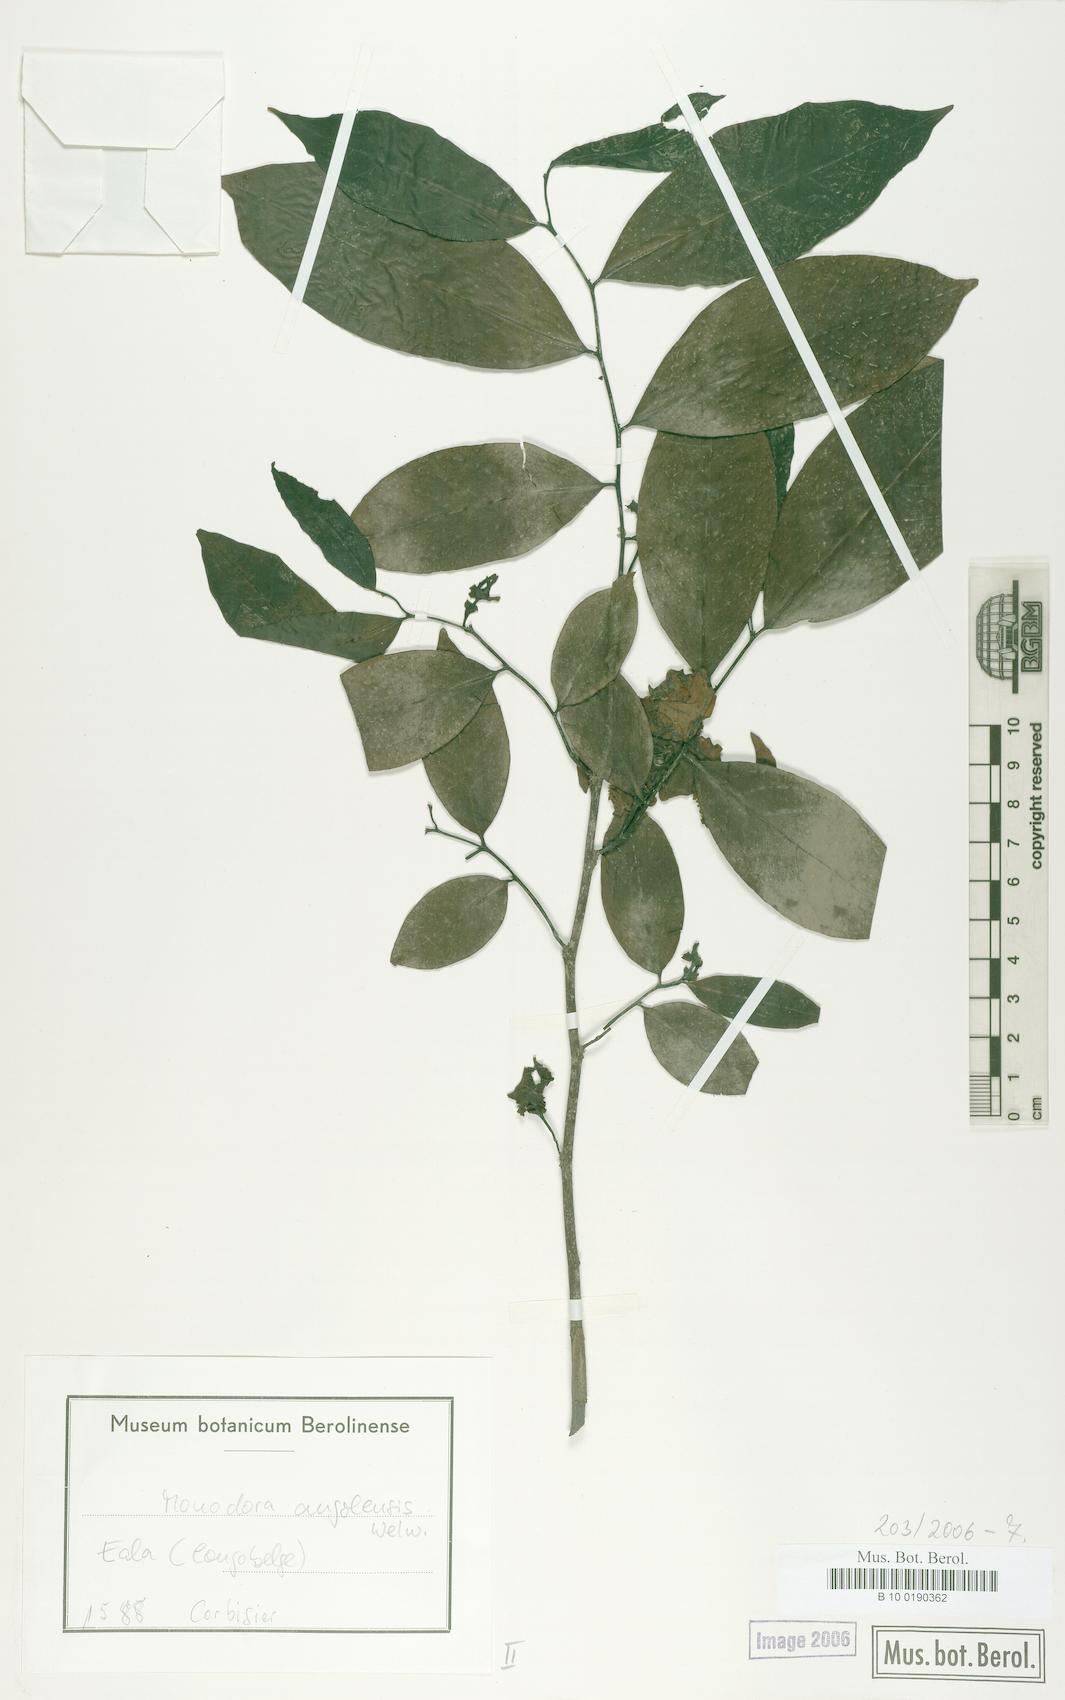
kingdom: Plantae
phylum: Tracheophyta
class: Magnoliopsida
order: Magnoliales
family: Annonaceae
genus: Monodora
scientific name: Monodora angolensis
